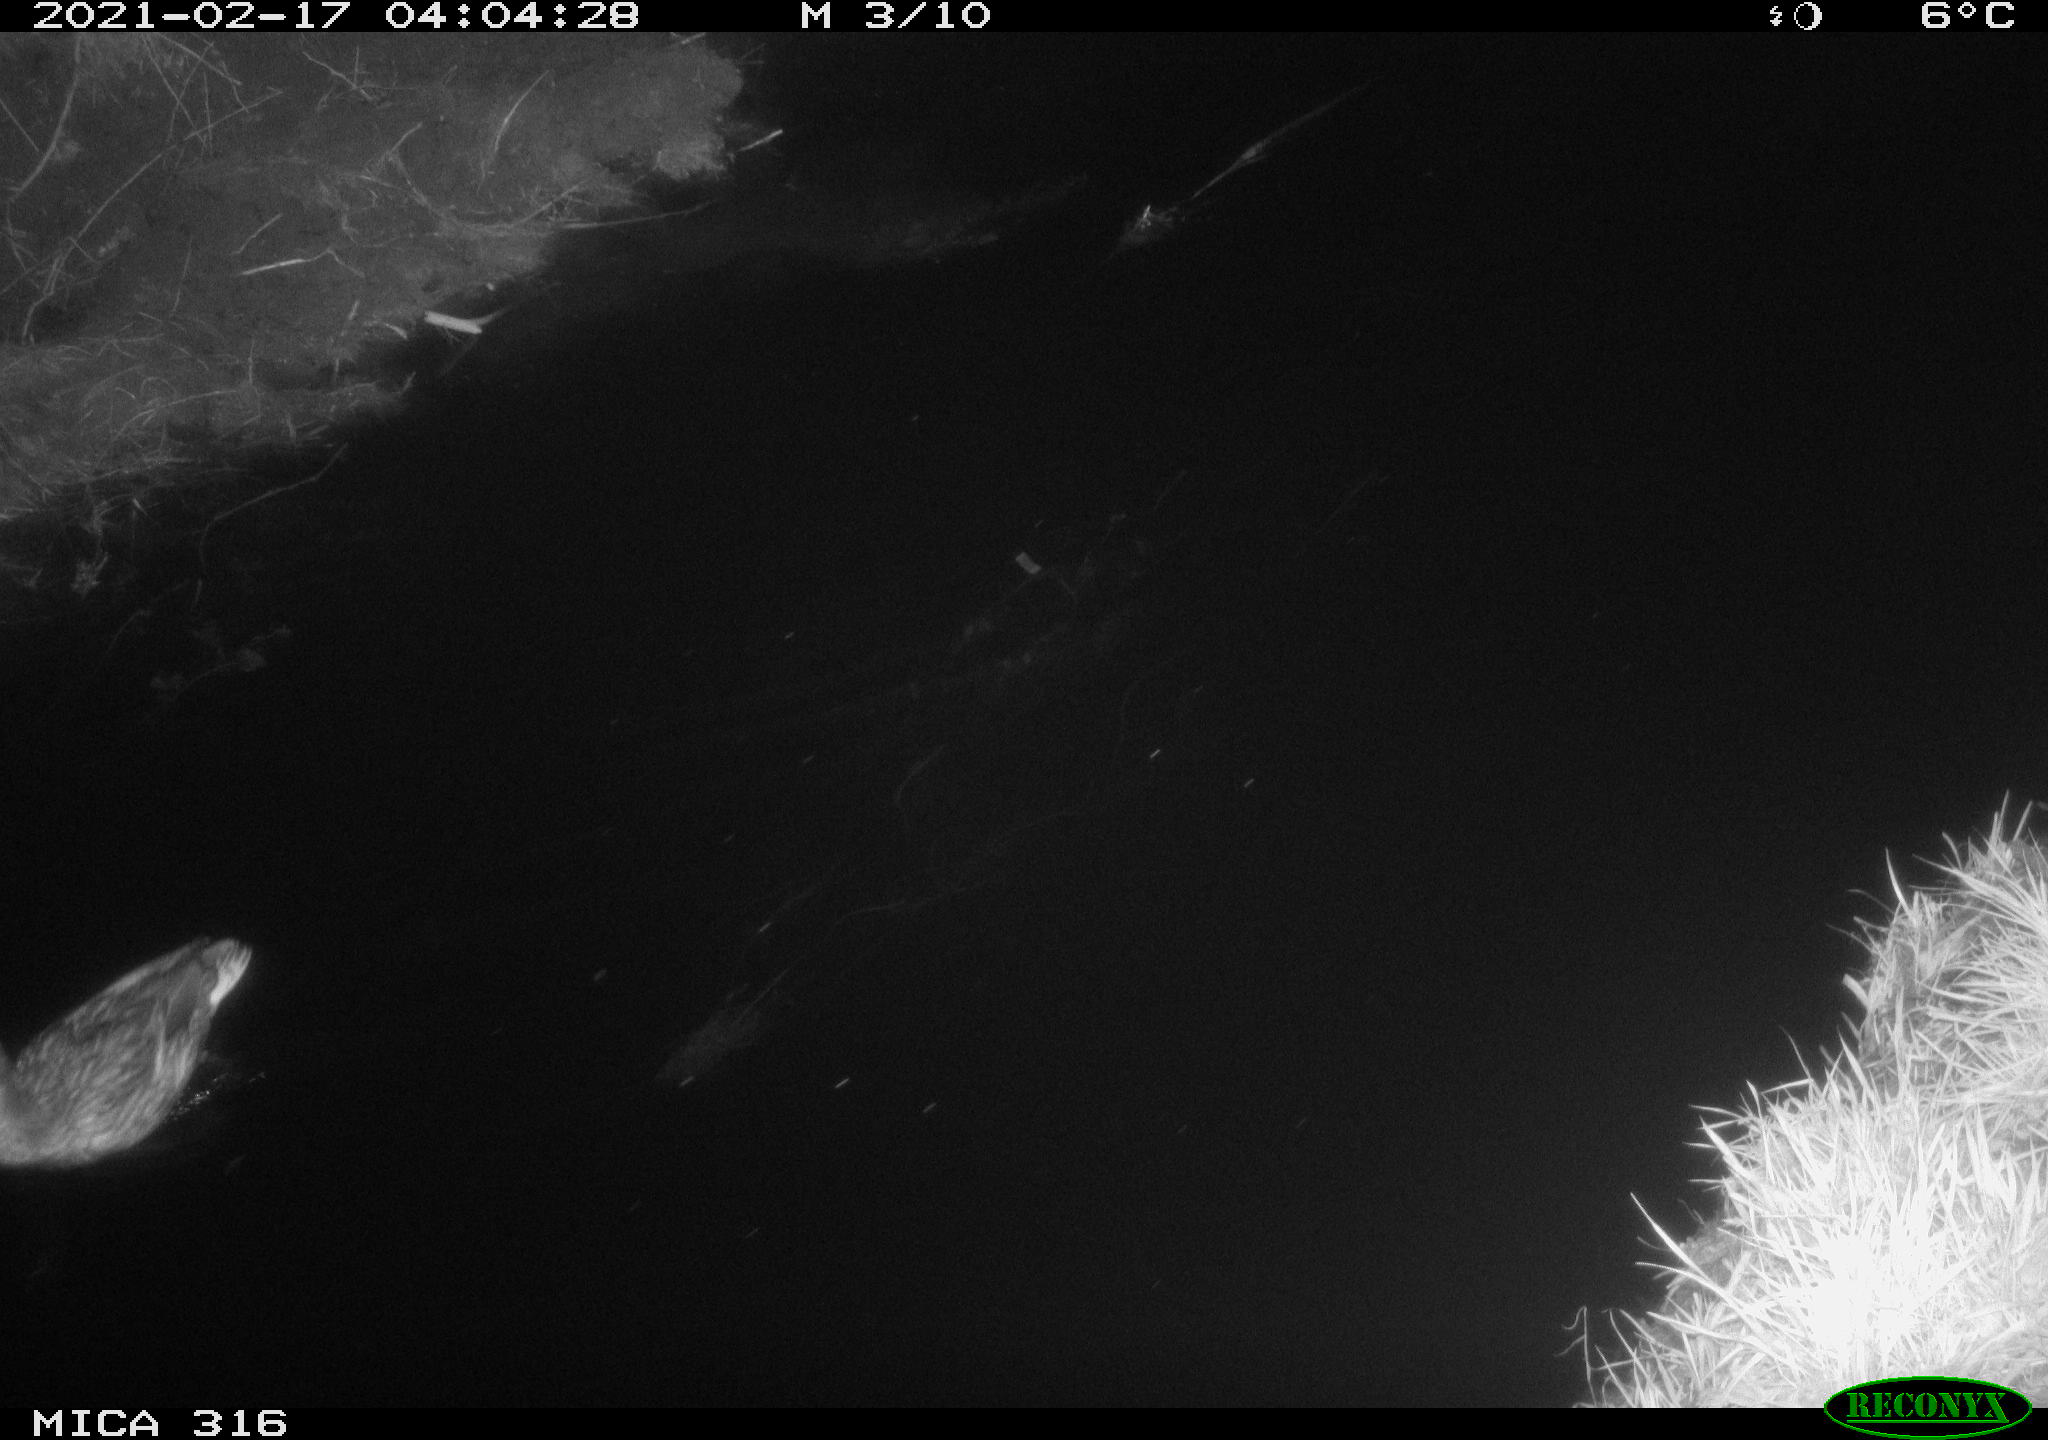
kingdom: Animalia
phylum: Chordata
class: Aves
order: Anseriformes
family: Anatidae
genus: Anas
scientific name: Anas platyrhynchos
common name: Mallard
